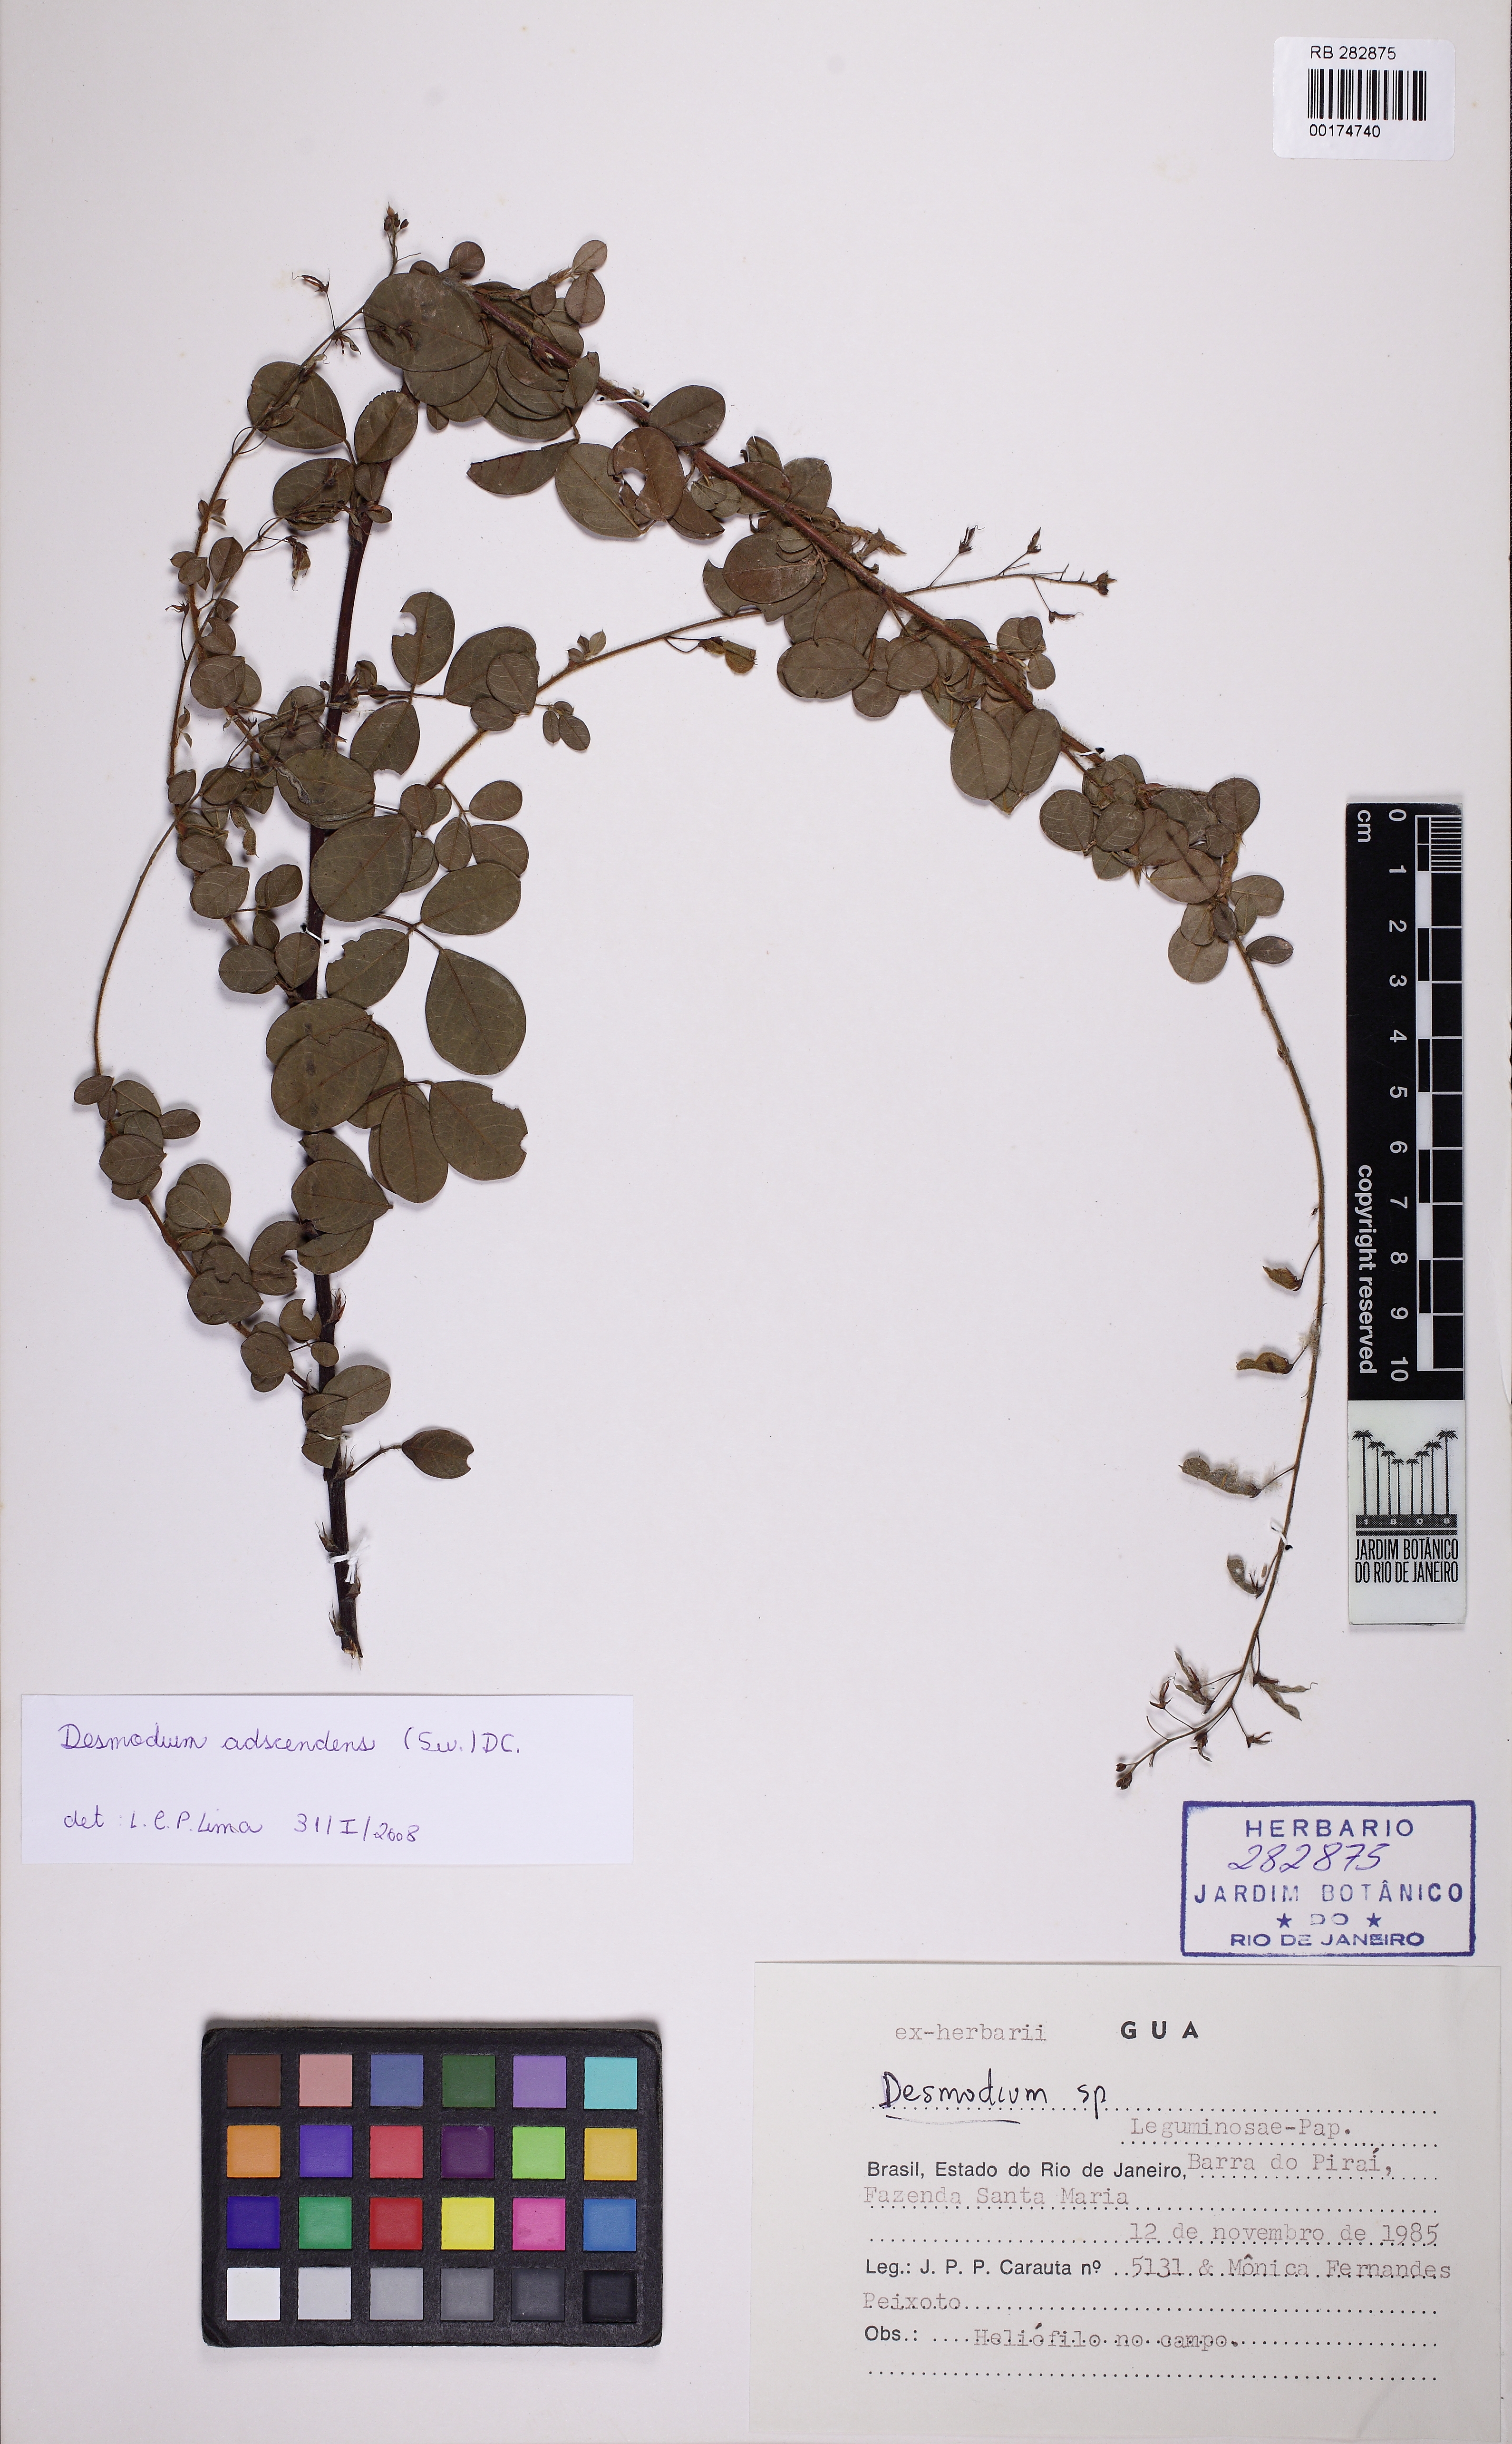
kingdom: Plantae
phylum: Tracheophyta
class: Magnoliopsida
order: Fabales
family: Fabaceae
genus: Grona
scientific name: Grona adscendens
